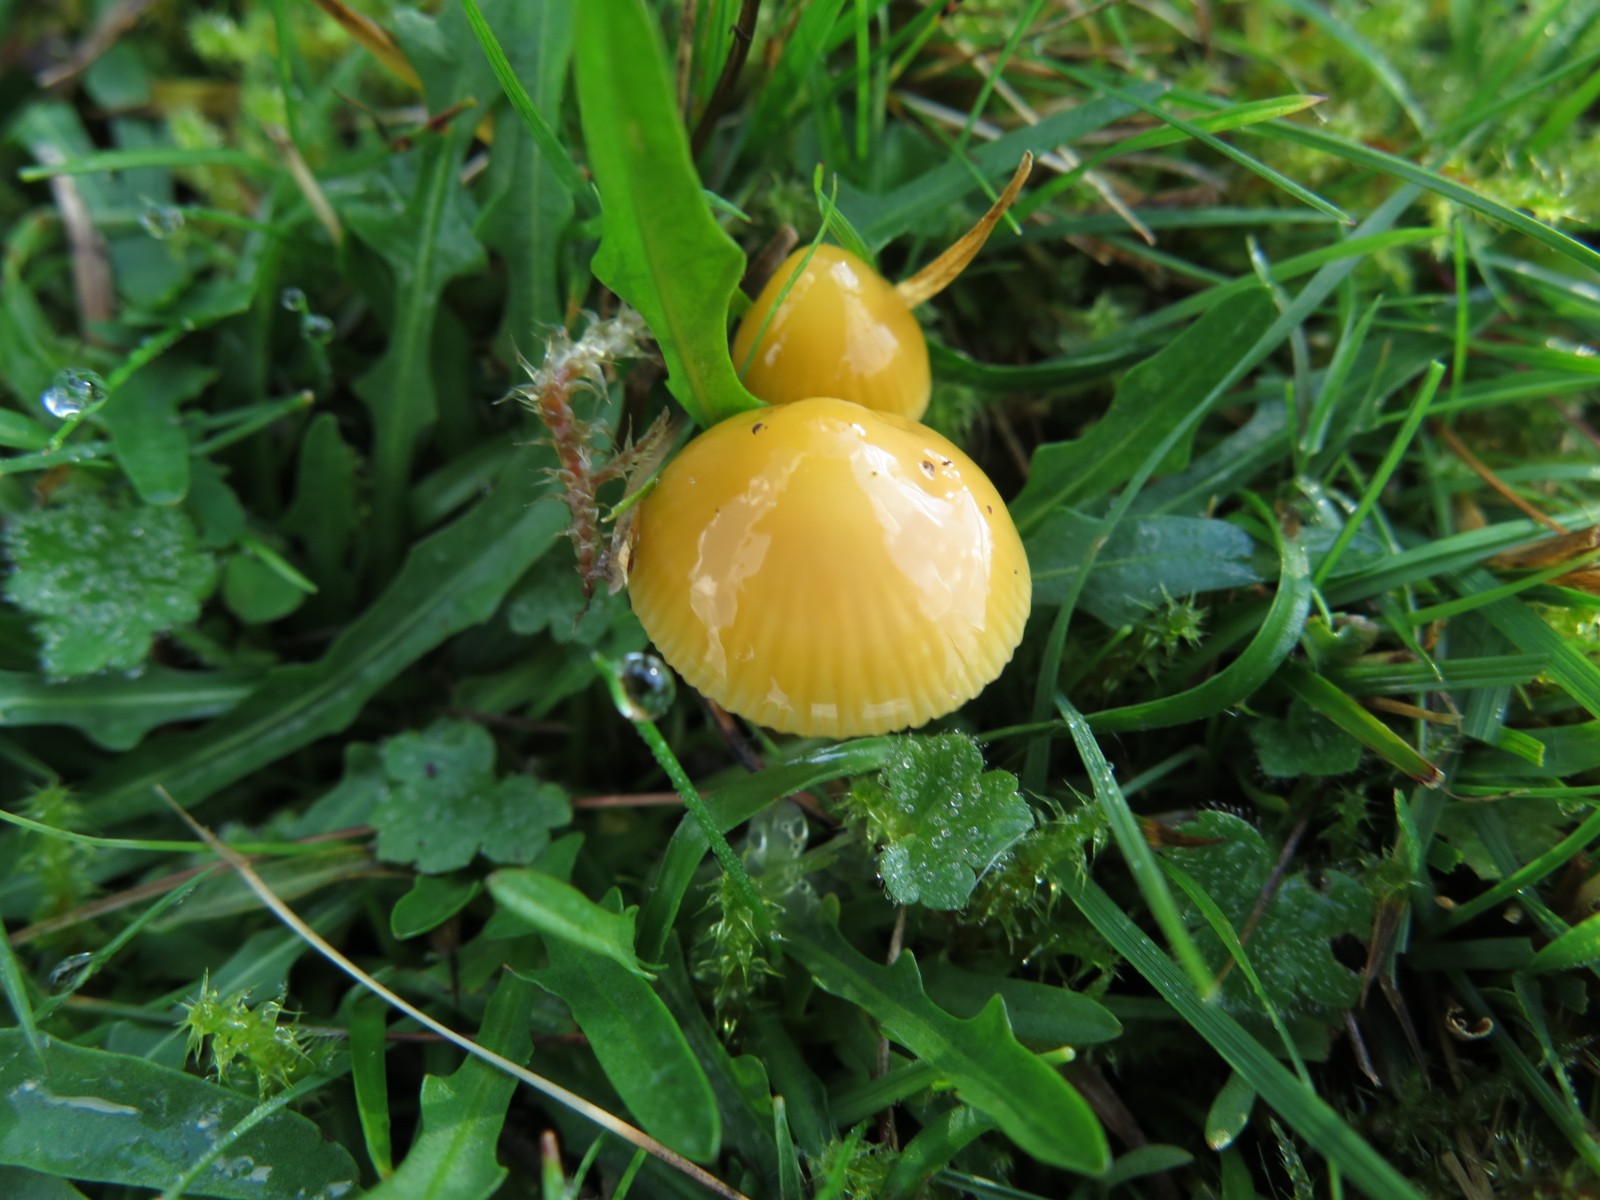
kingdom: Fungi
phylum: Basidiomycota
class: Agaricomycetes
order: Agaricales
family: Hygrophoraceae
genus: Hygrocybe
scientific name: Hygrocybe chlorophana
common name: gul vokshat
